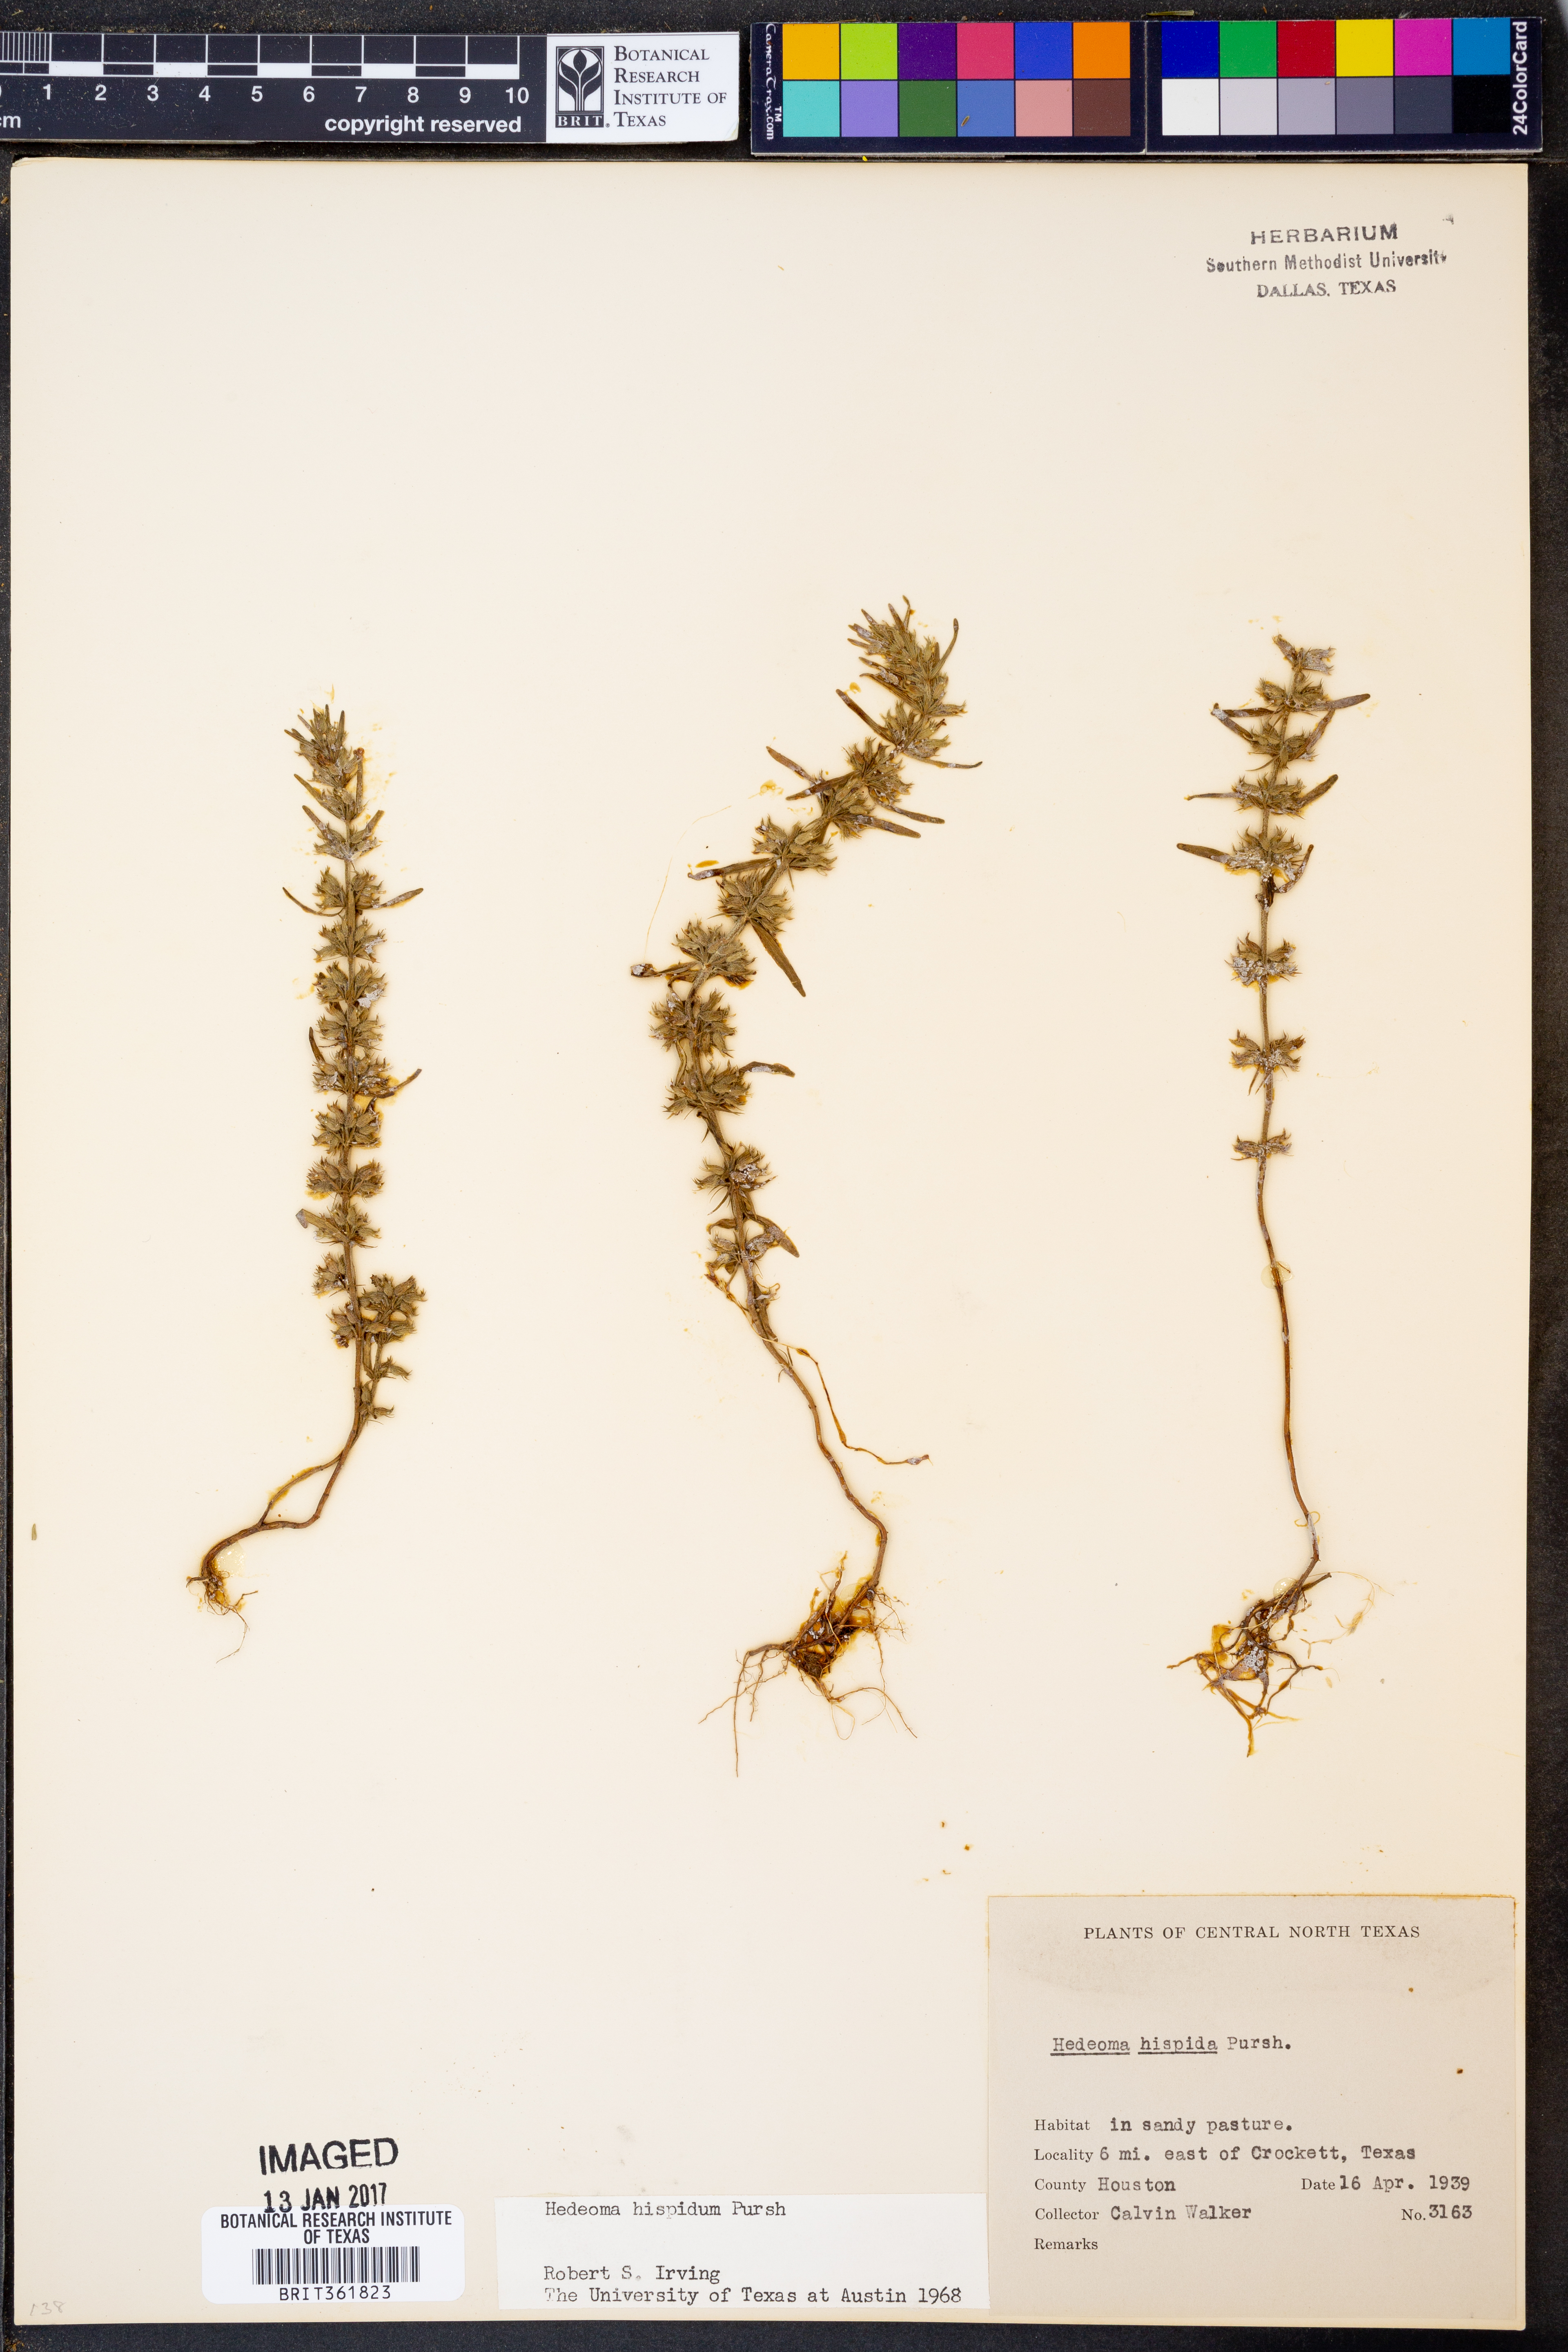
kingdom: Plantae
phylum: Tracheophyta
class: Magnoliopsida
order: Lamiales
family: Lamiaceae
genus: Hedeoma
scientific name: Hedeoma hispida
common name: Mock pennyroyal
